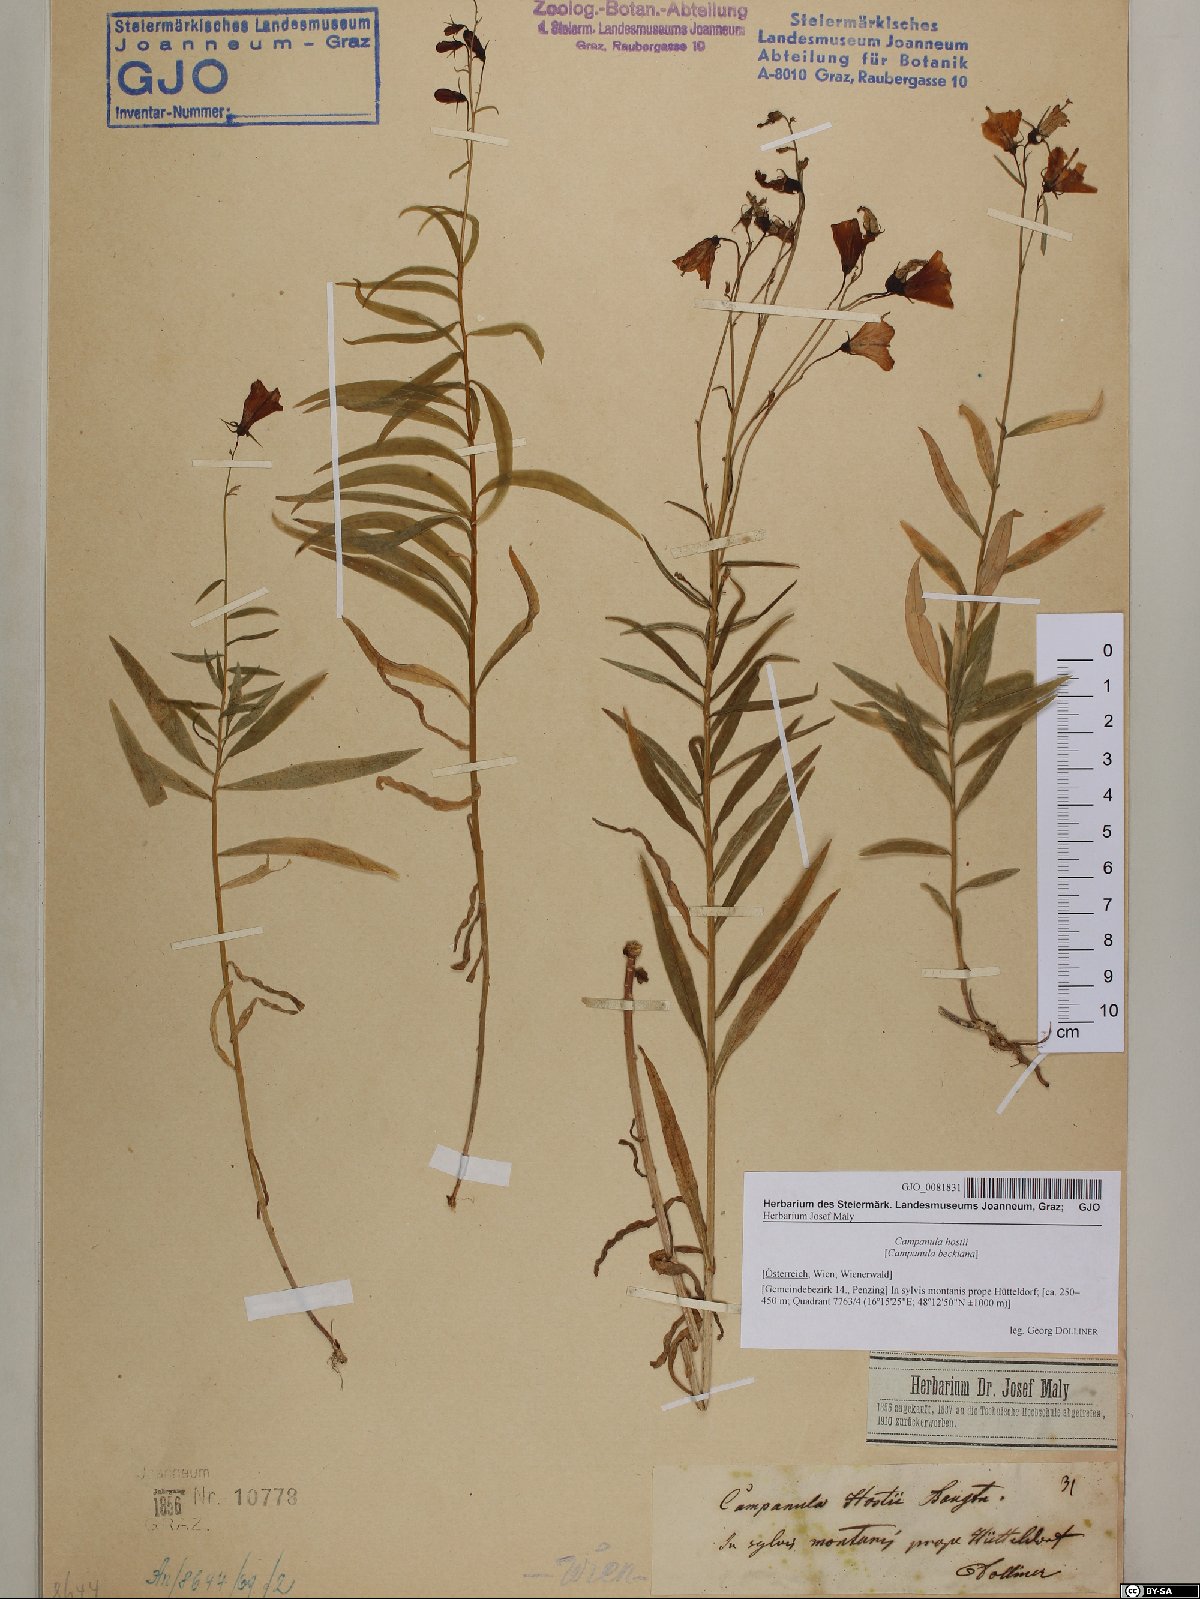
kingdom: Plantae
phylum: Tracheophyta
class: Magnoliopsida
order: Asterales
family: Campanulaceae
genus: Campanula
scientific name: Campanula rotundifolia
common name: Harebell
